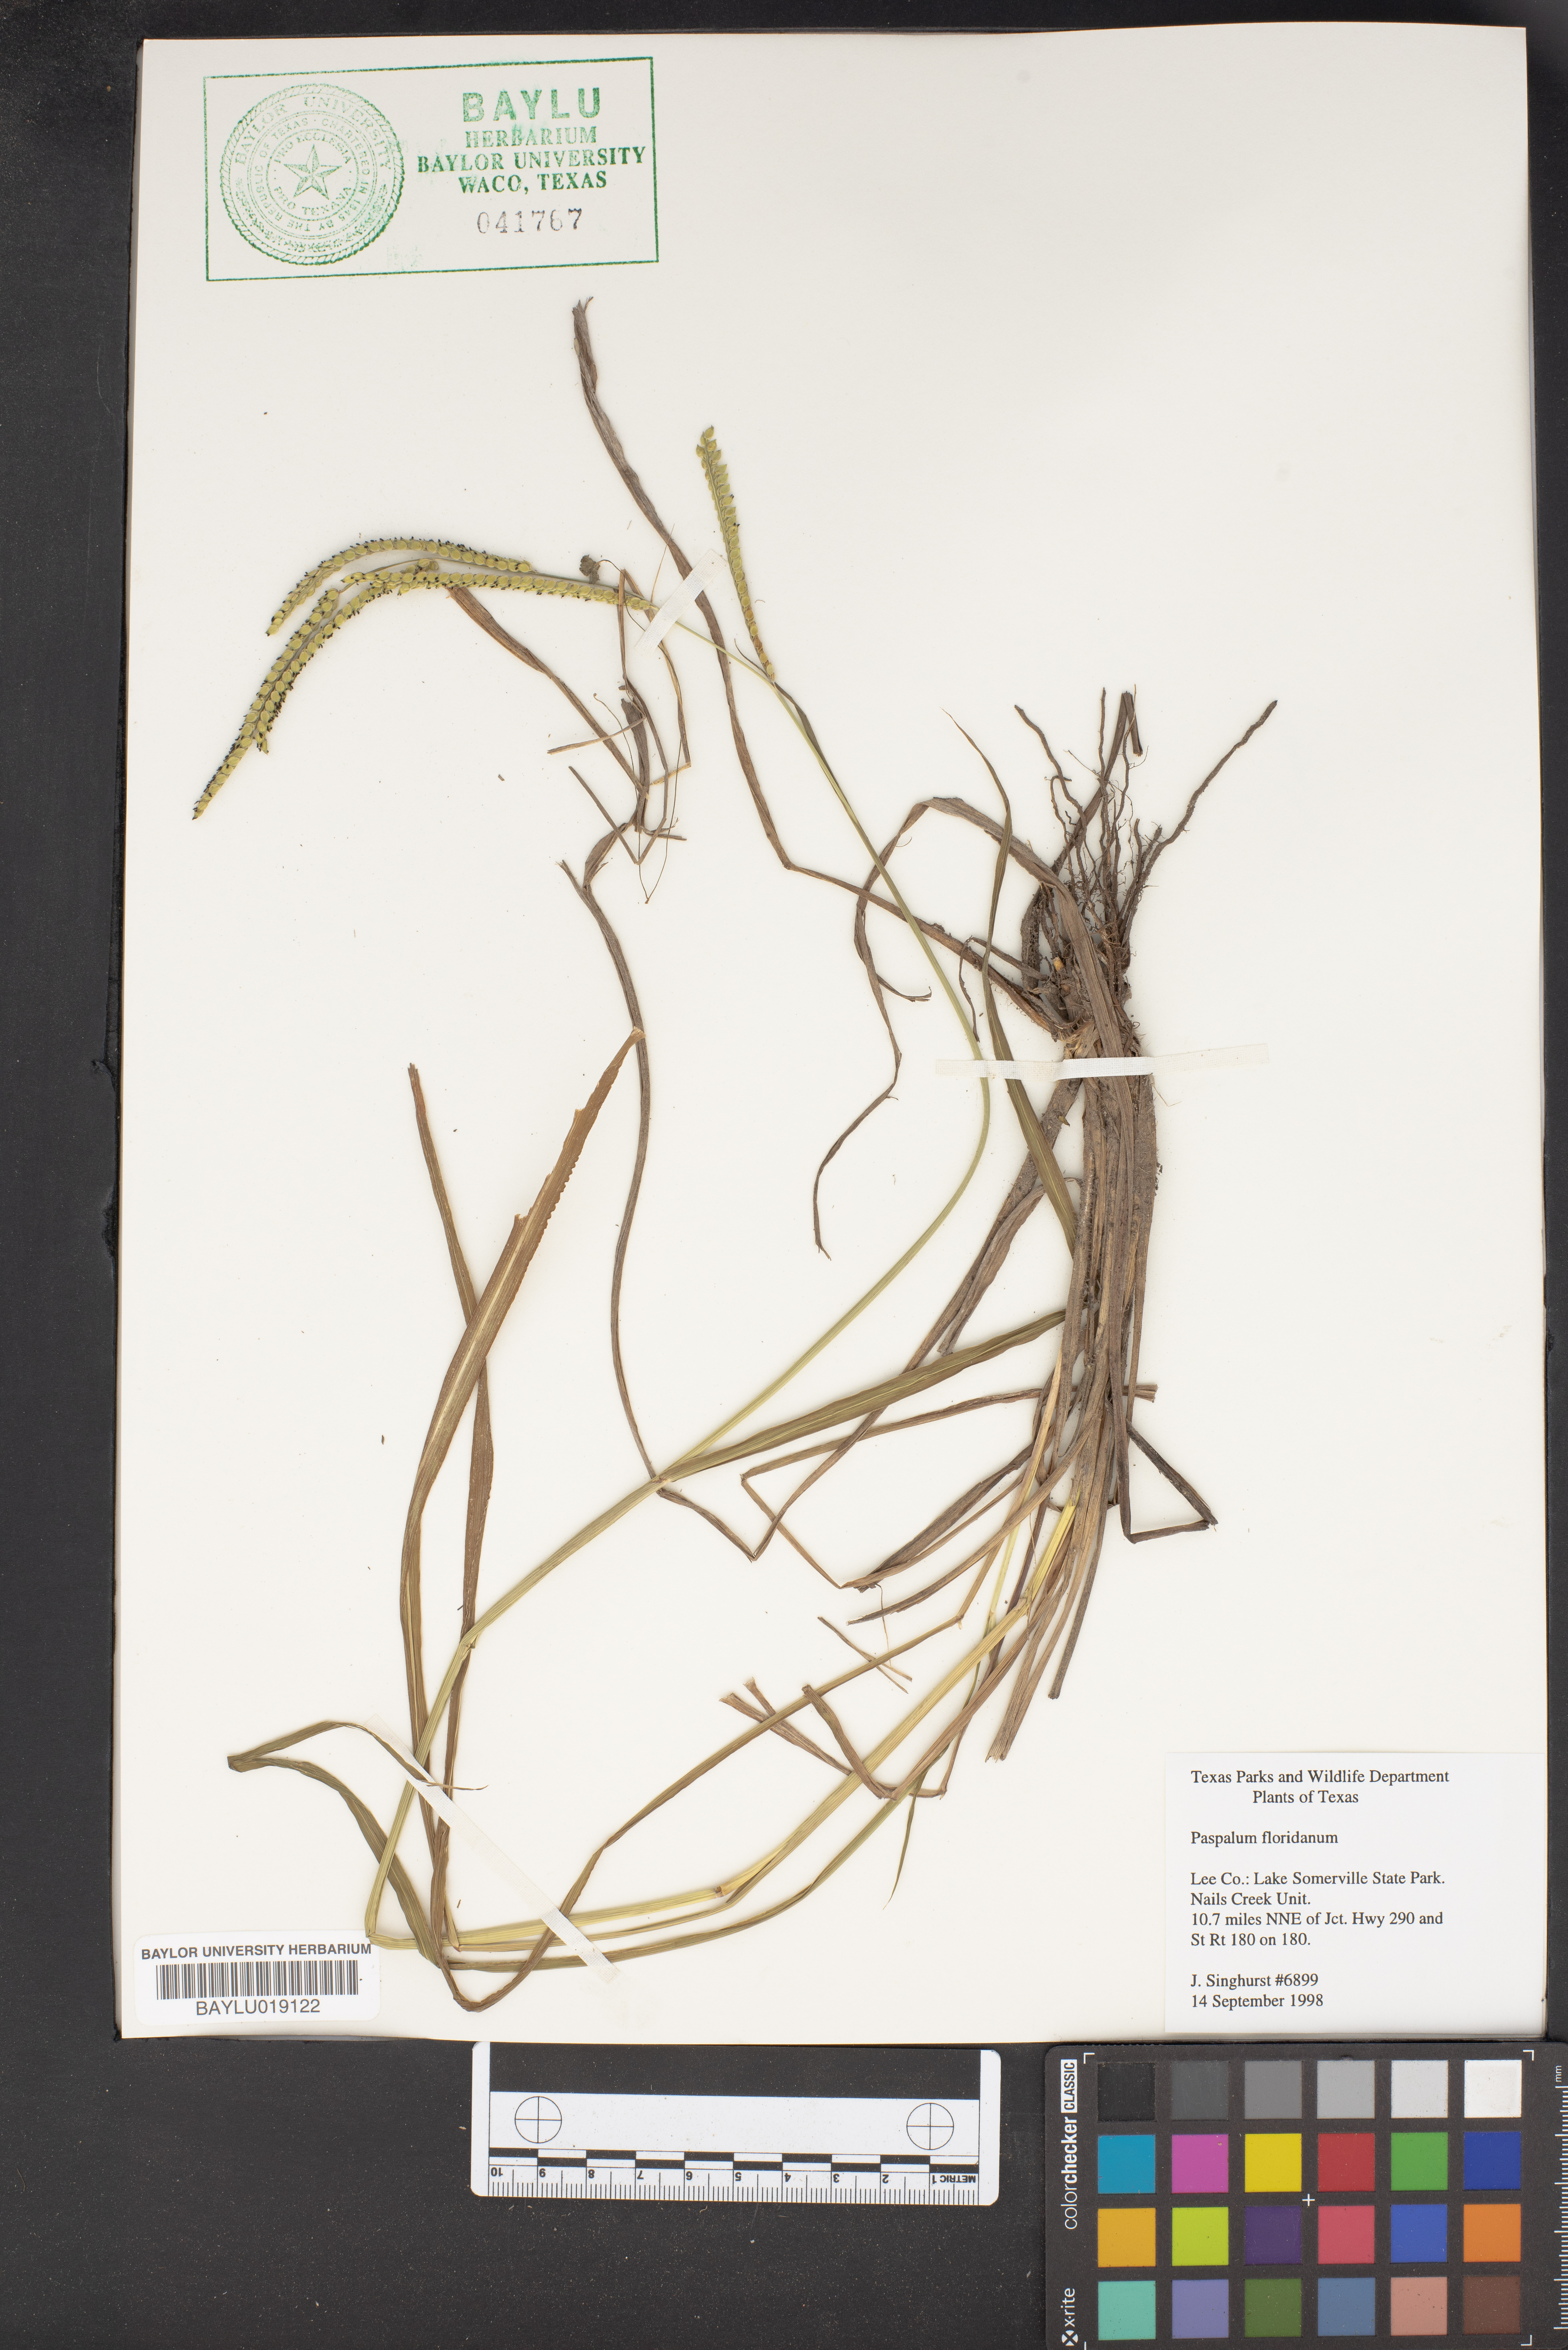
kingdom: Plantae
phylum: Tracheophyta
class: Liliopsida
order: Poales
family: Poaceae
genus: Paspalum
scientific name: Paspalum floridanum
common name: Florida paspalum
